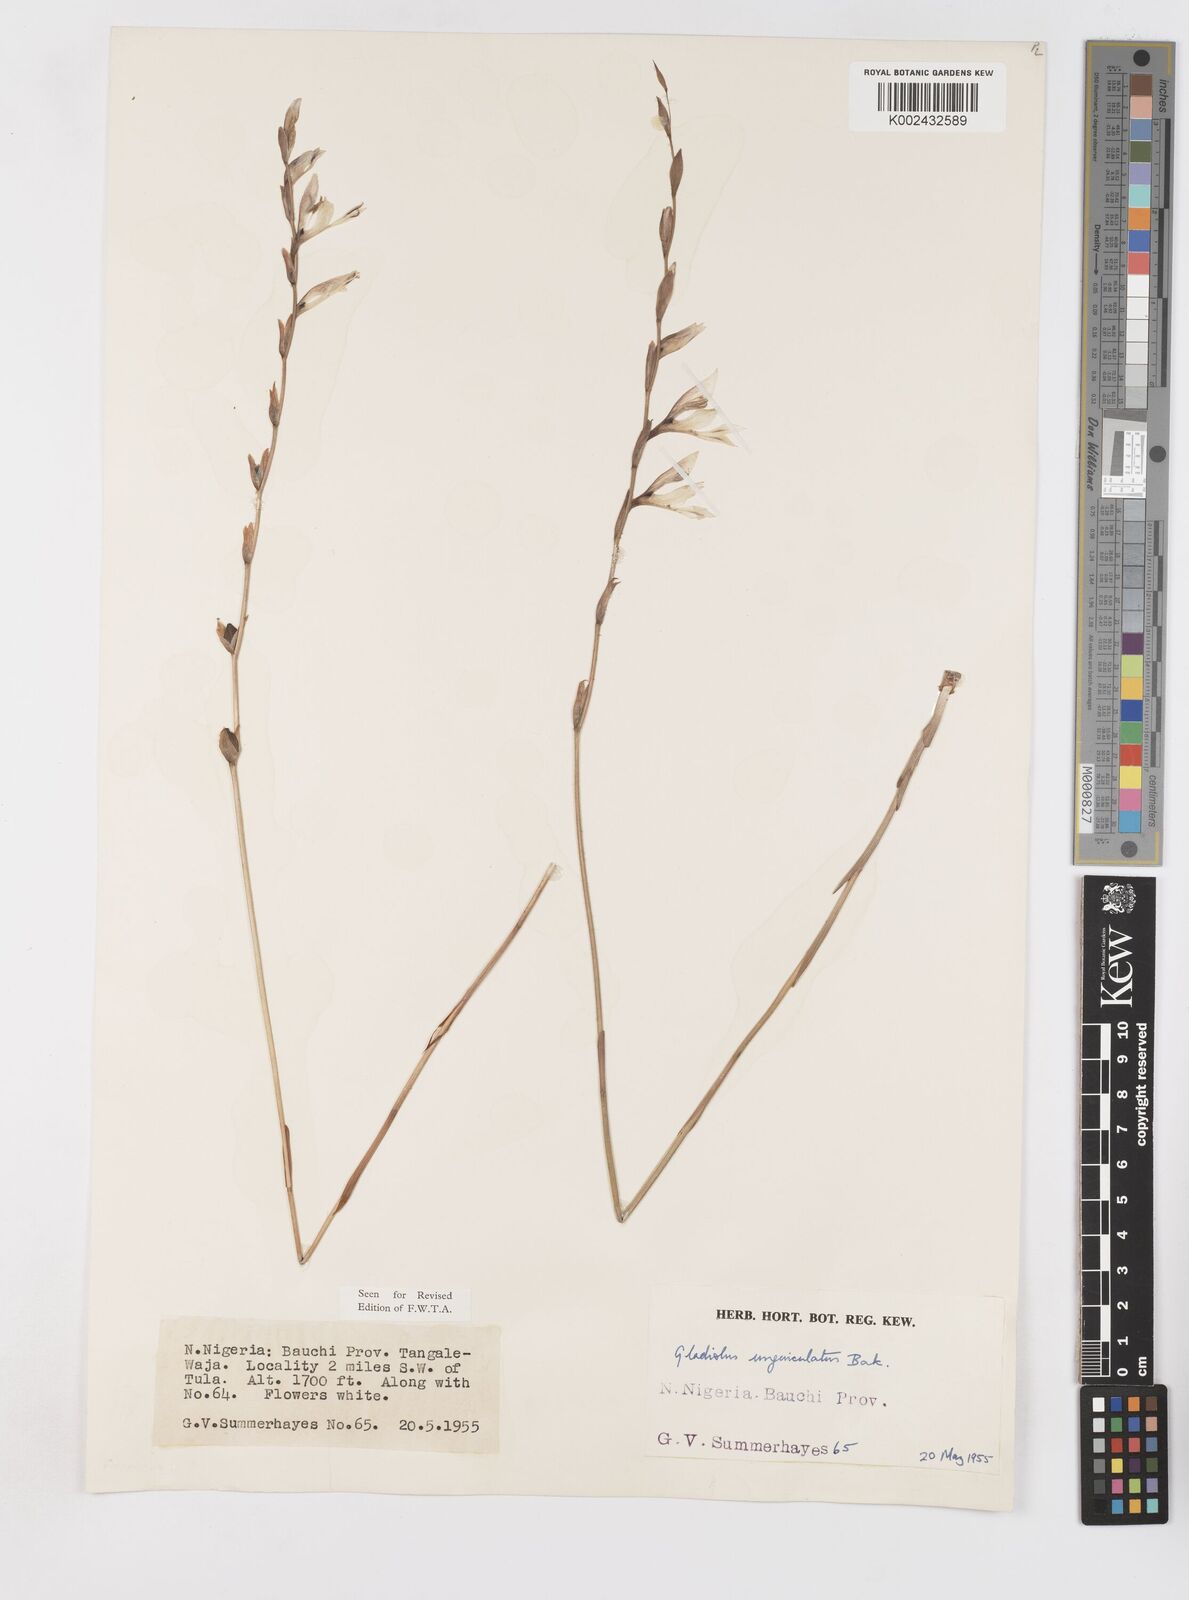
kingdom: Plantae
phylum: Tracheophyta
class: Liliopsida
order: Asparagales
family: Iridaceae
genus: Gladiolus
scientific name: Gladiolus unguiculatus
